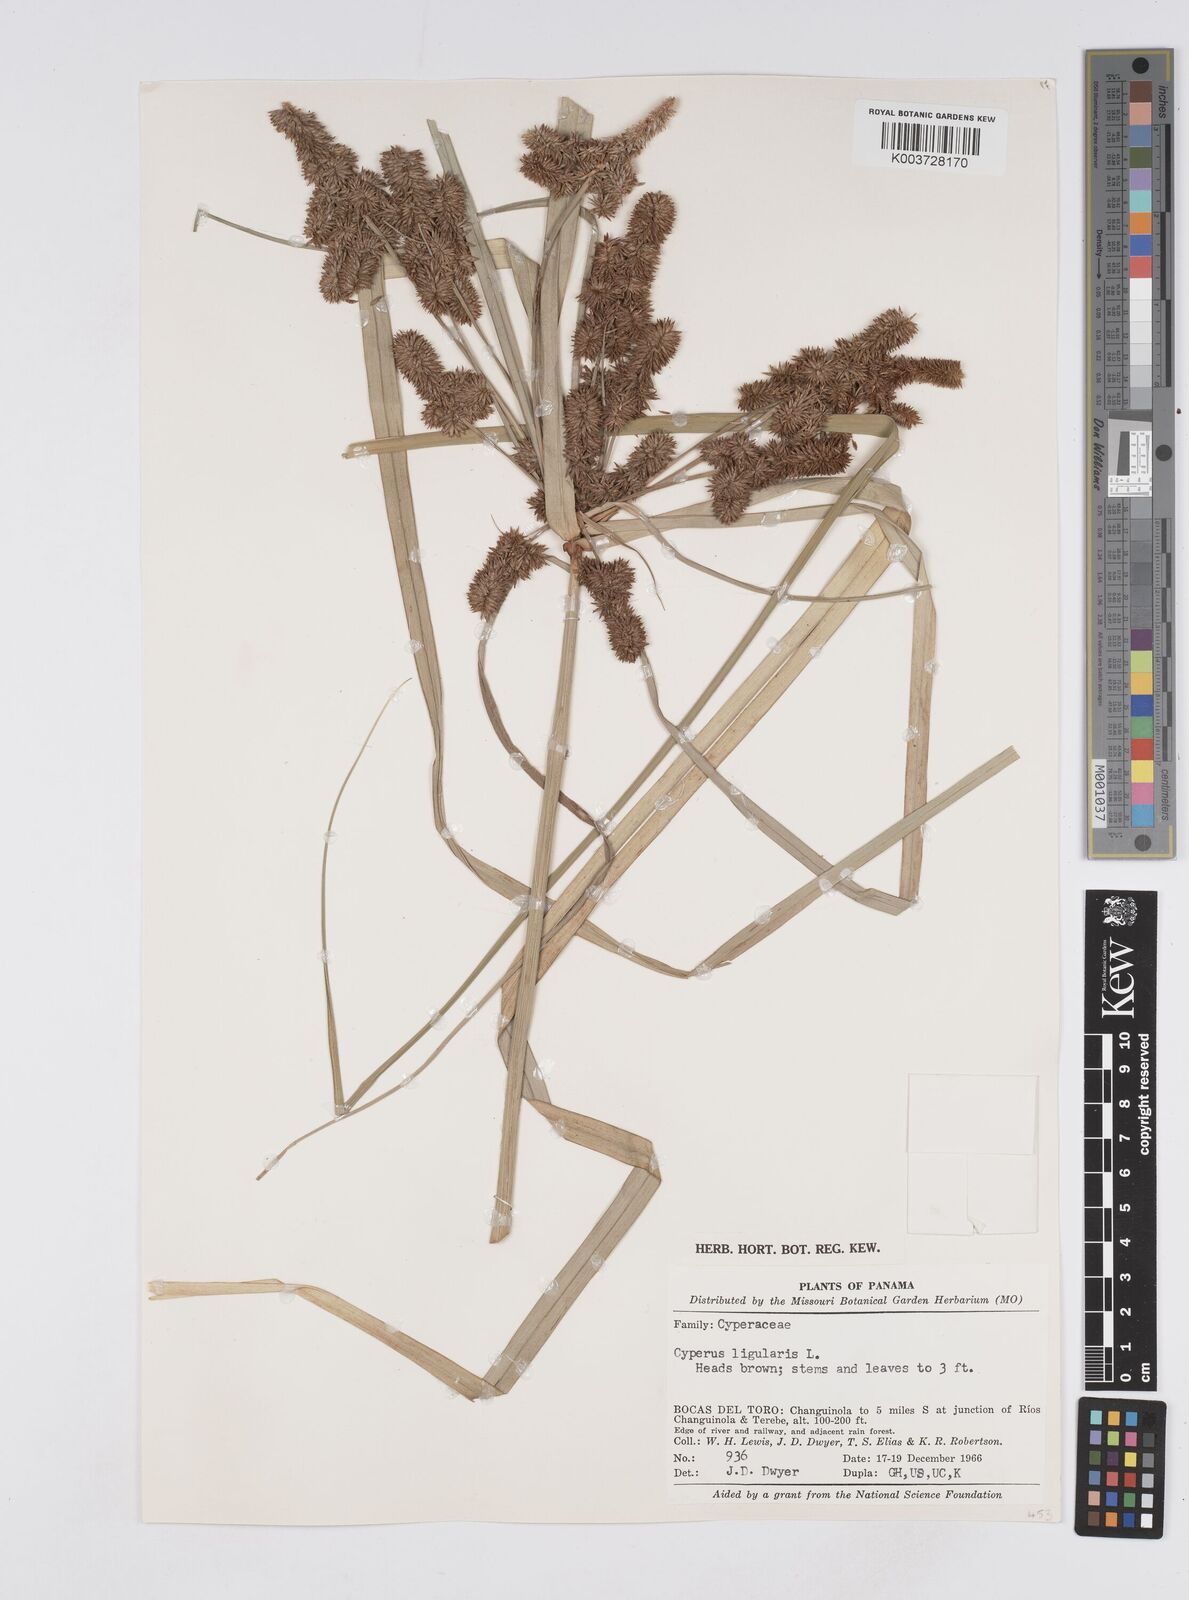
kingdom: Plantae
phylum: Tracheophyta
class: Liliopsida
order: Poales
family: Cyperaceae
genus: Cyperus
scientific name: Cyperus ligularis
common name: Swamp flat sedge
